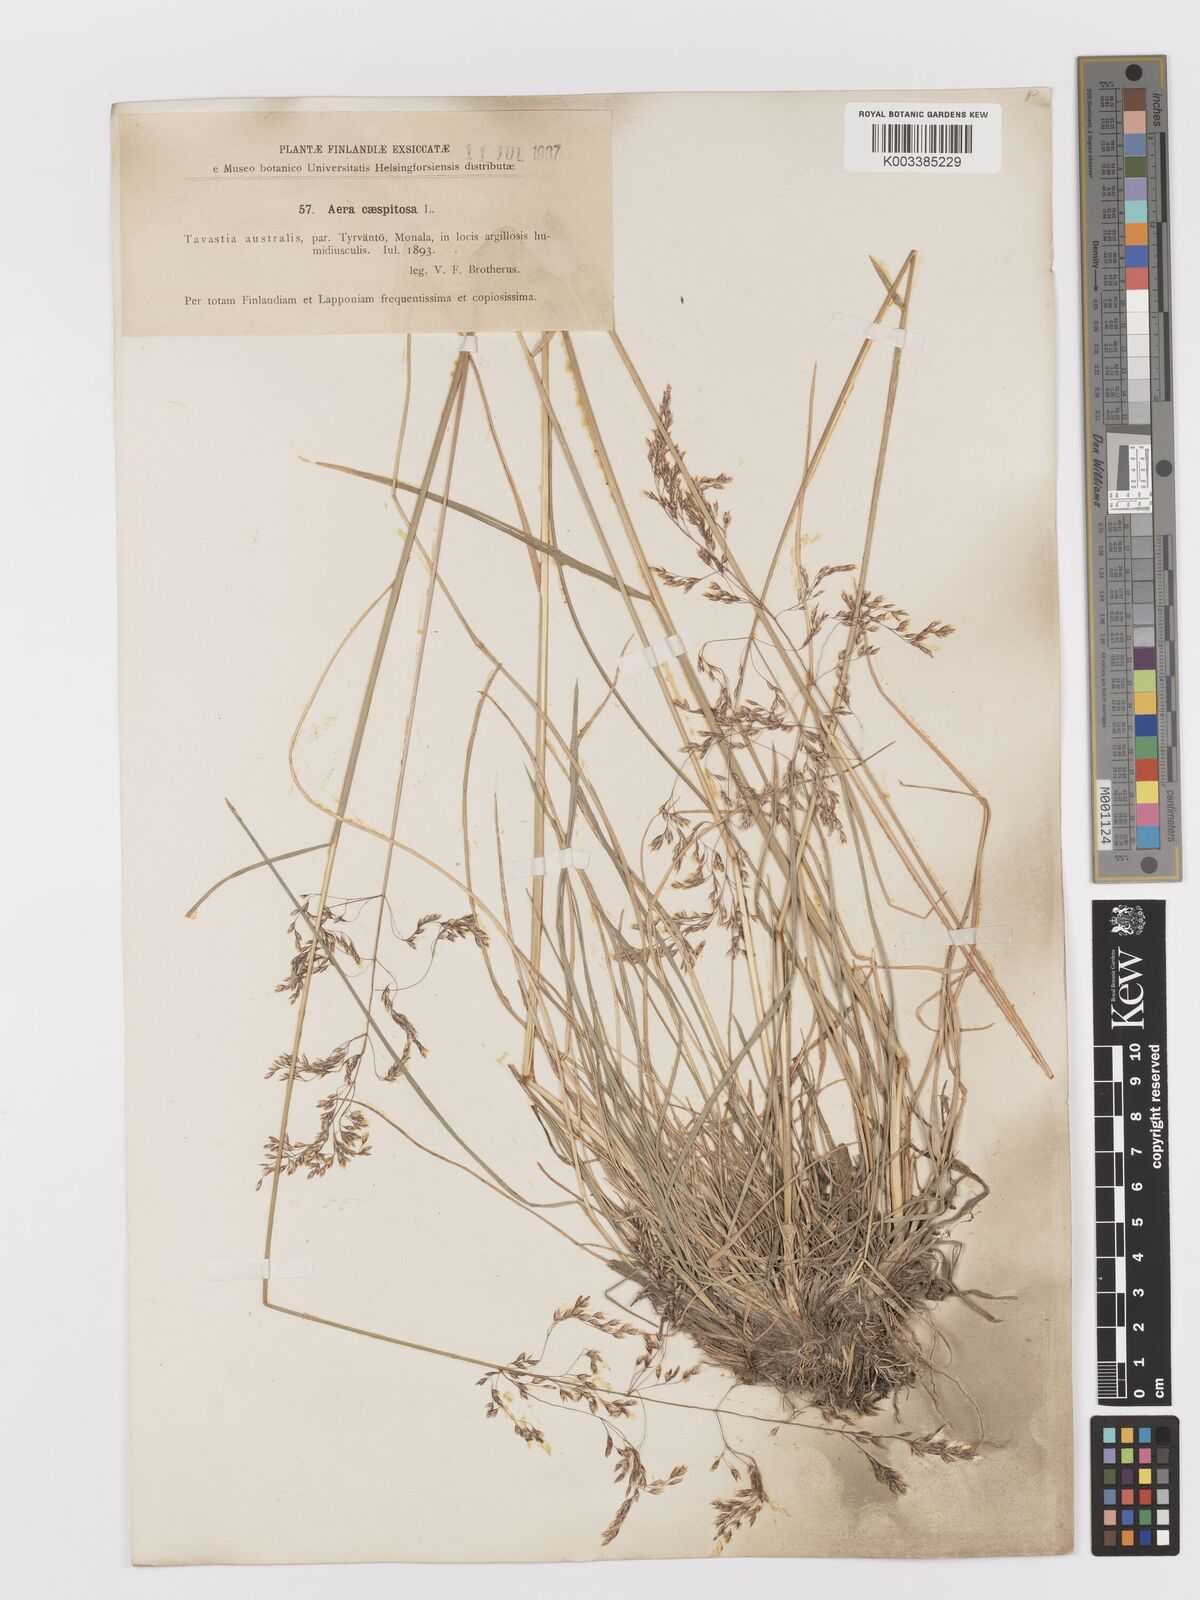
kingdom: Plantae
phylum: Tracheophyta
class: Liliopsida
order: Poales
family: Poaceae
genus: Deschampsia
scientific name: Deschampsia cespitosa
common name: Tufted hair-grass
